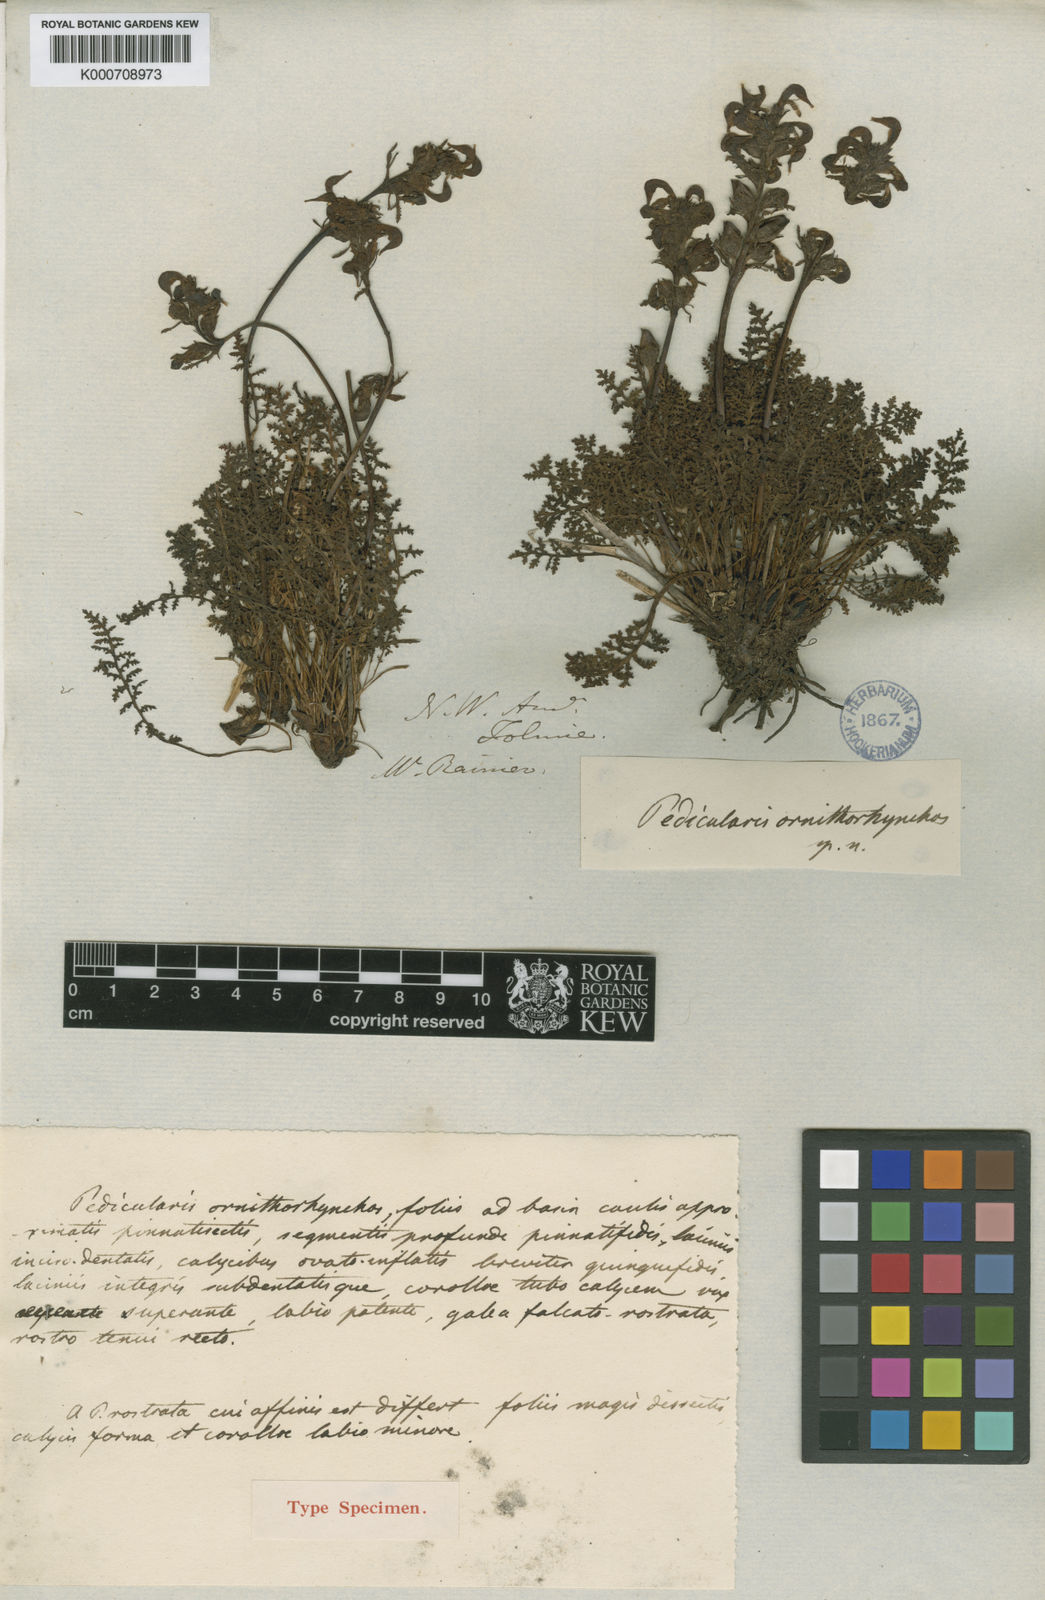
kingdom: Plantae
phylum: Tracheophyta
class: Magnoliopsida
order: Lamiales
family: Orobanchaceae
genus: Pedicularis
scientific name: Pedicularis ornithorhynchos
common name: Bird's-beak lousewort
